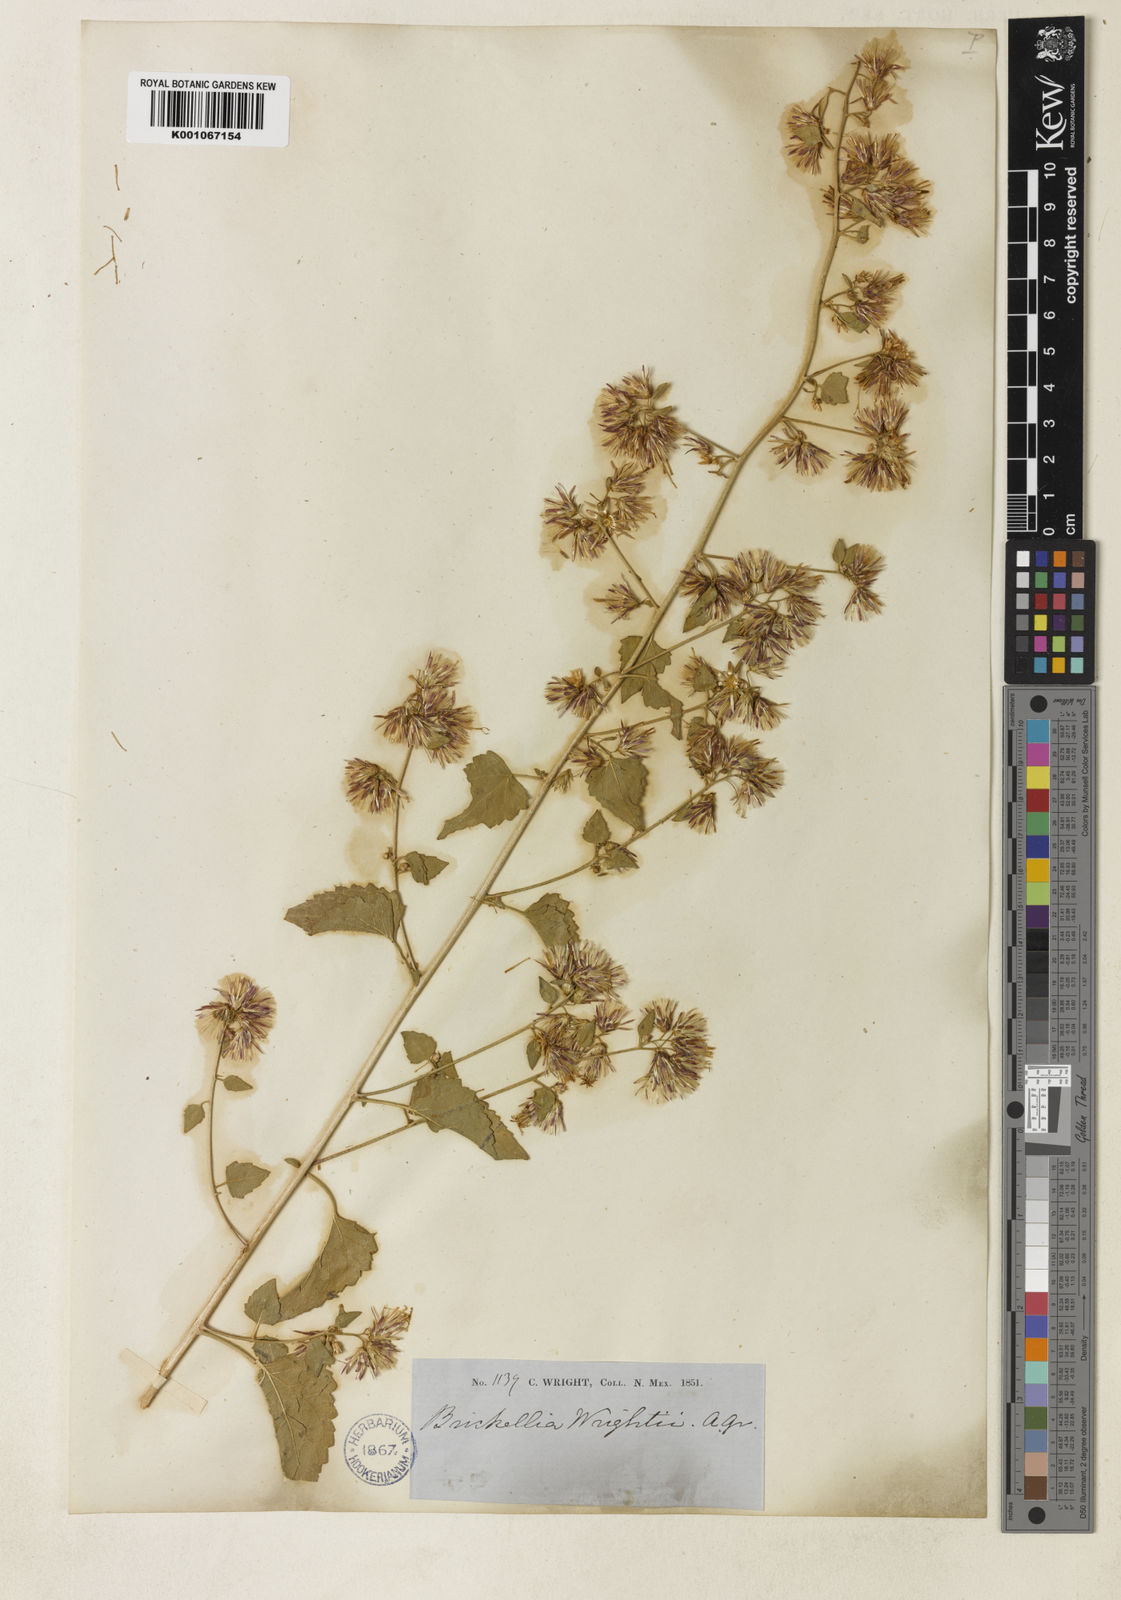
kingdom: Plantae
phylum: Tracheophyta
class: Magnoliopsida
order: Asterales
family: Asteraceae
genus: Brickellia
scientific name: Brickellia californica
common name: California brickellbush
